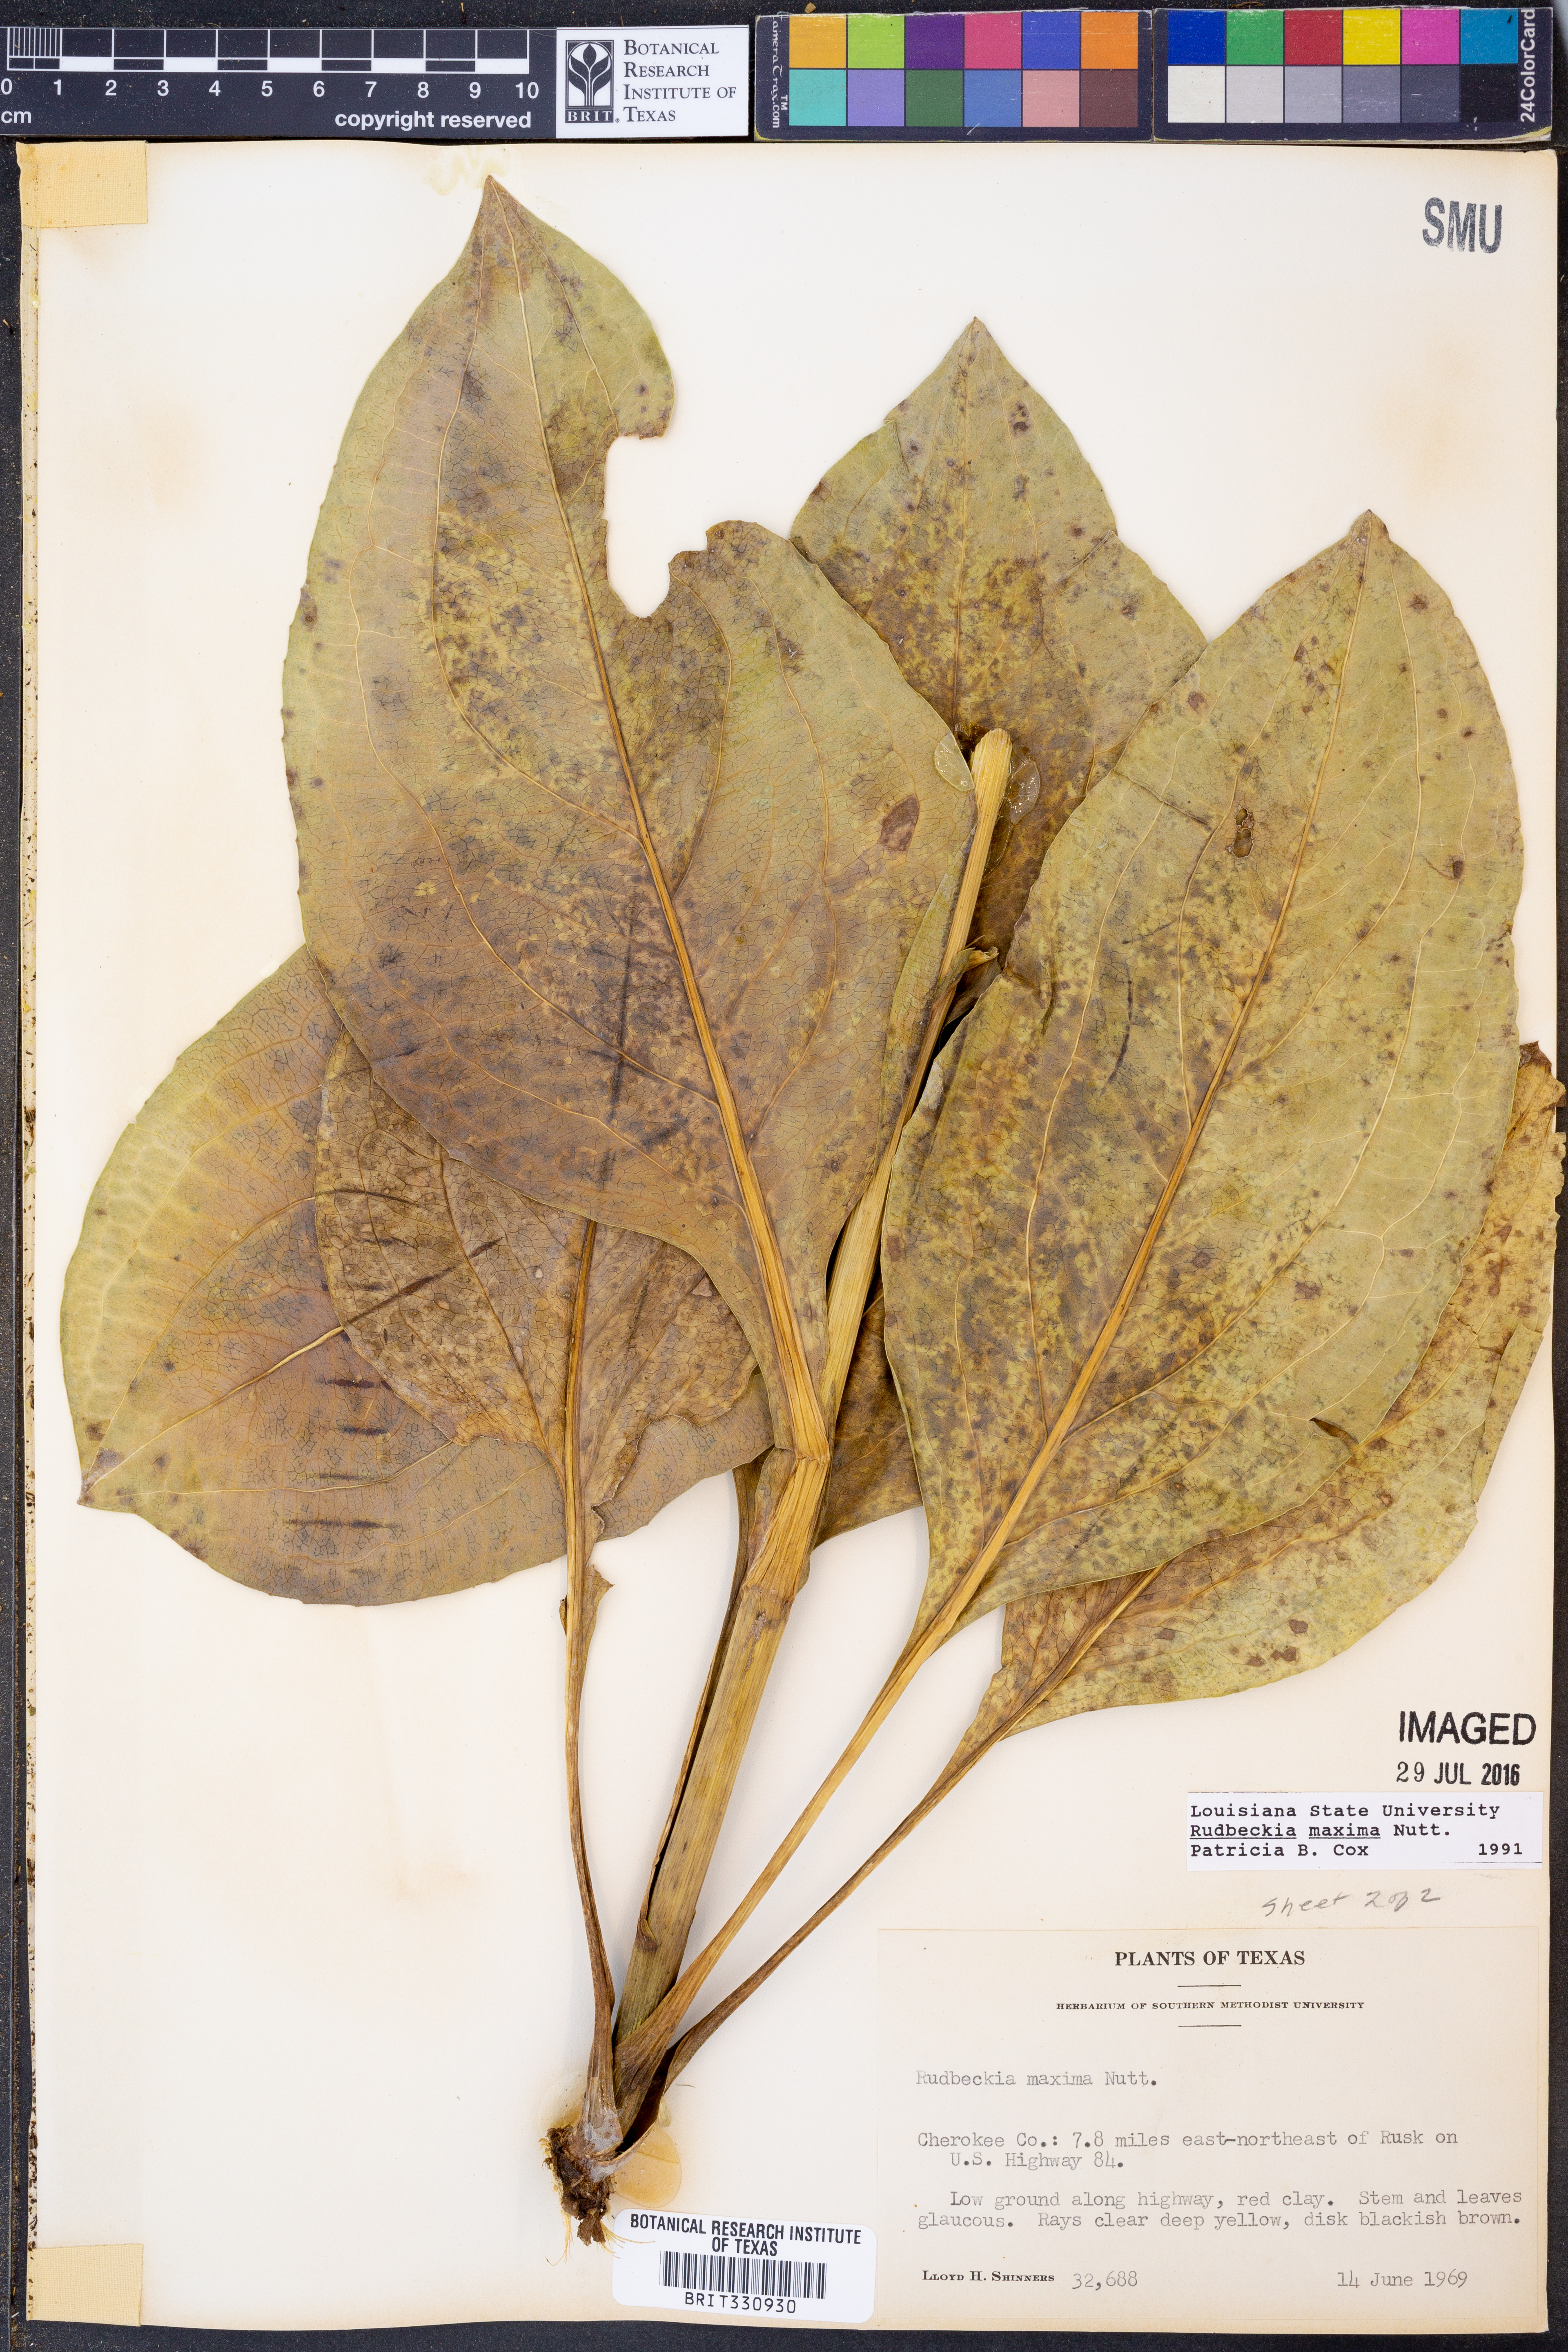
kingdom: Plantae
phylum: Tracheophyta
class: Magnoliopsida
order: Asterales
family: Asteraceae
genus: Rudbeckia
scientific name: Rudbeckia maxima
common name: Cabbage coneflower
